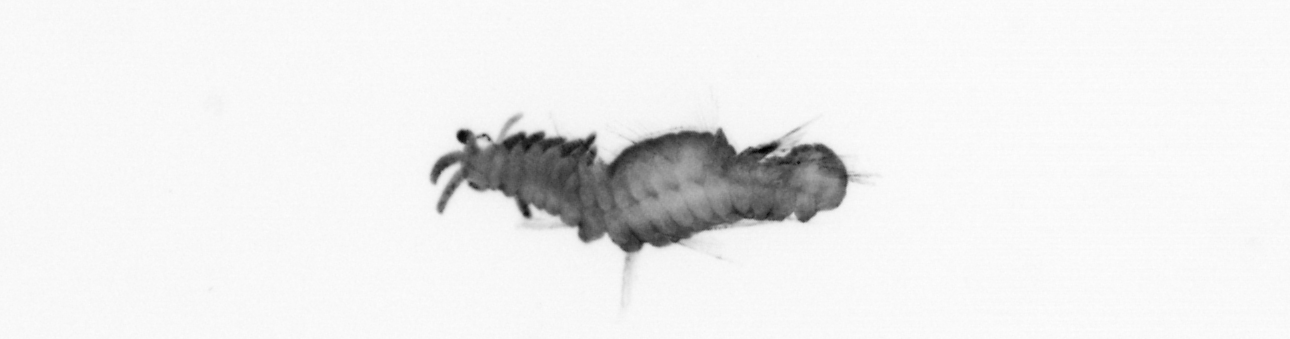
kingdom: Animalia
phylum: Annelida
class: Polychaeta
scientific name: Polychaeta
